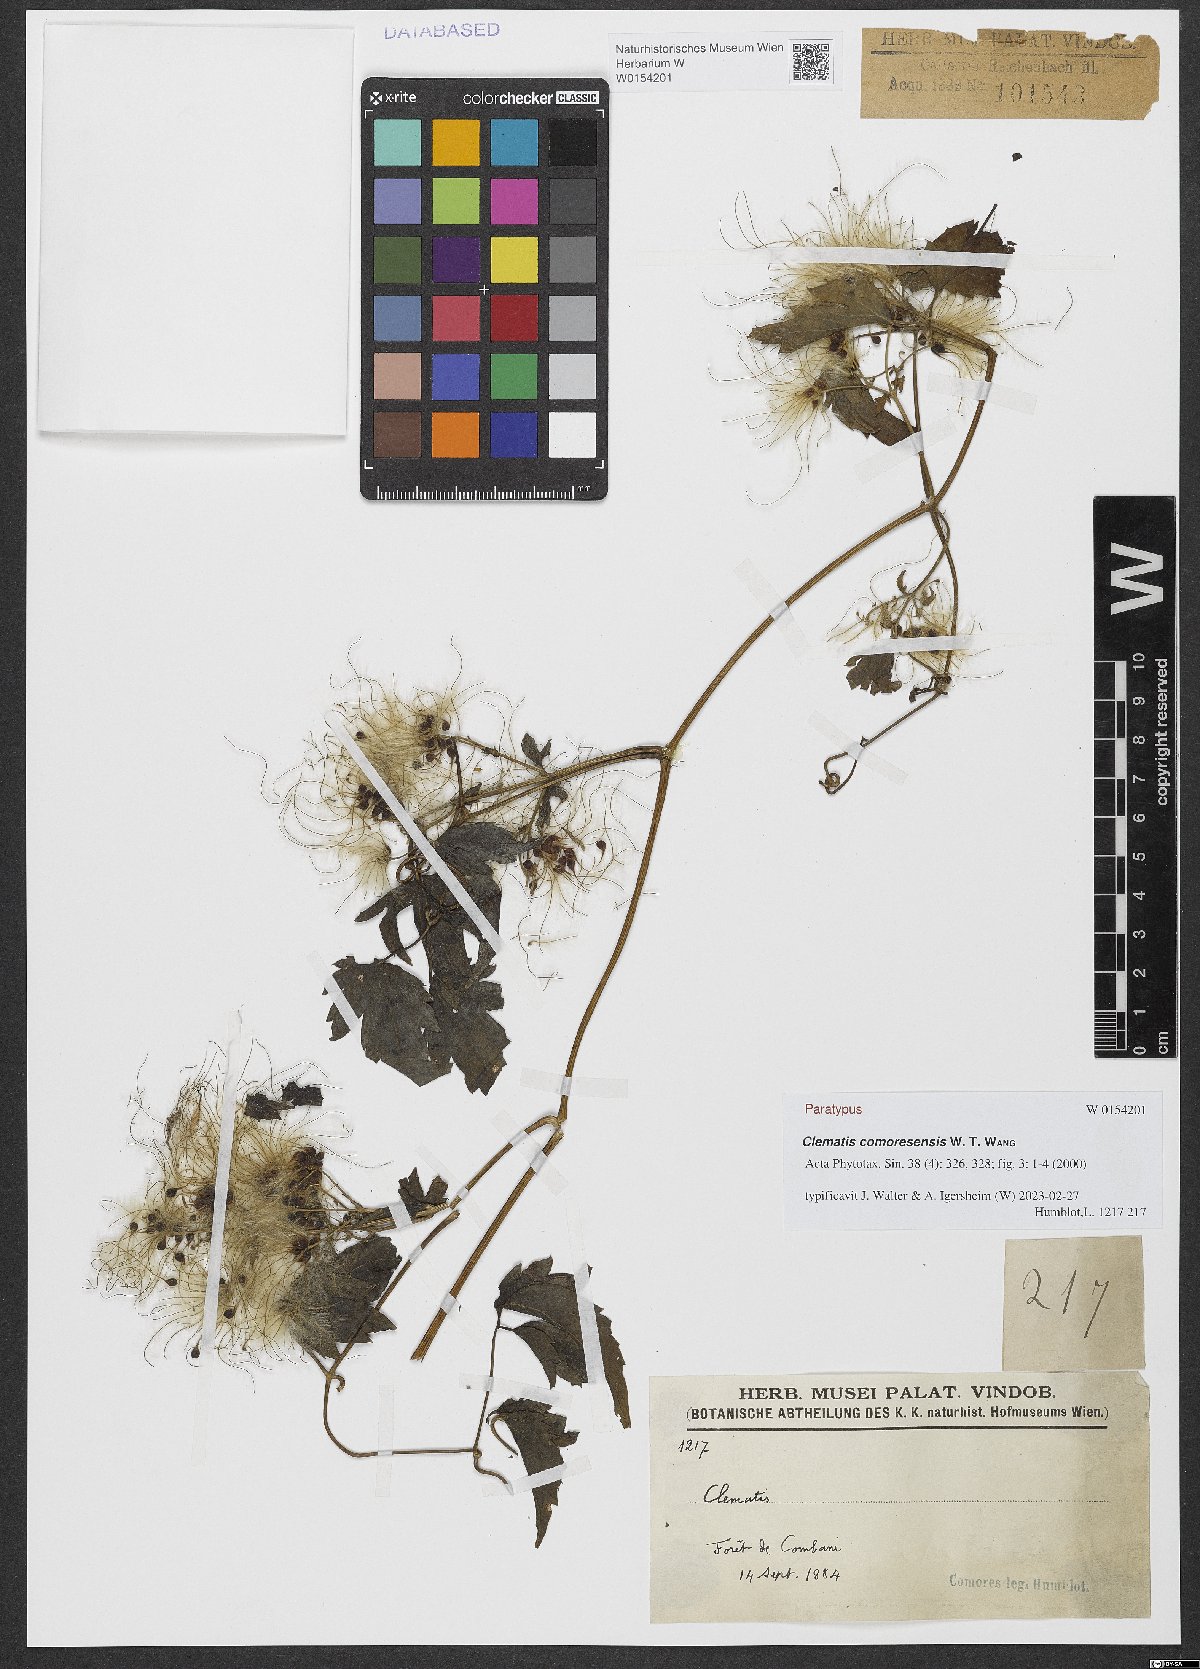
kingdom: Plantae
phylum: Tracheophyta
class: Magnoliopsida
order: Ranunculales
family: Ranunculaceae
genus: Clematis
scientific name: Clematis comoresensis
